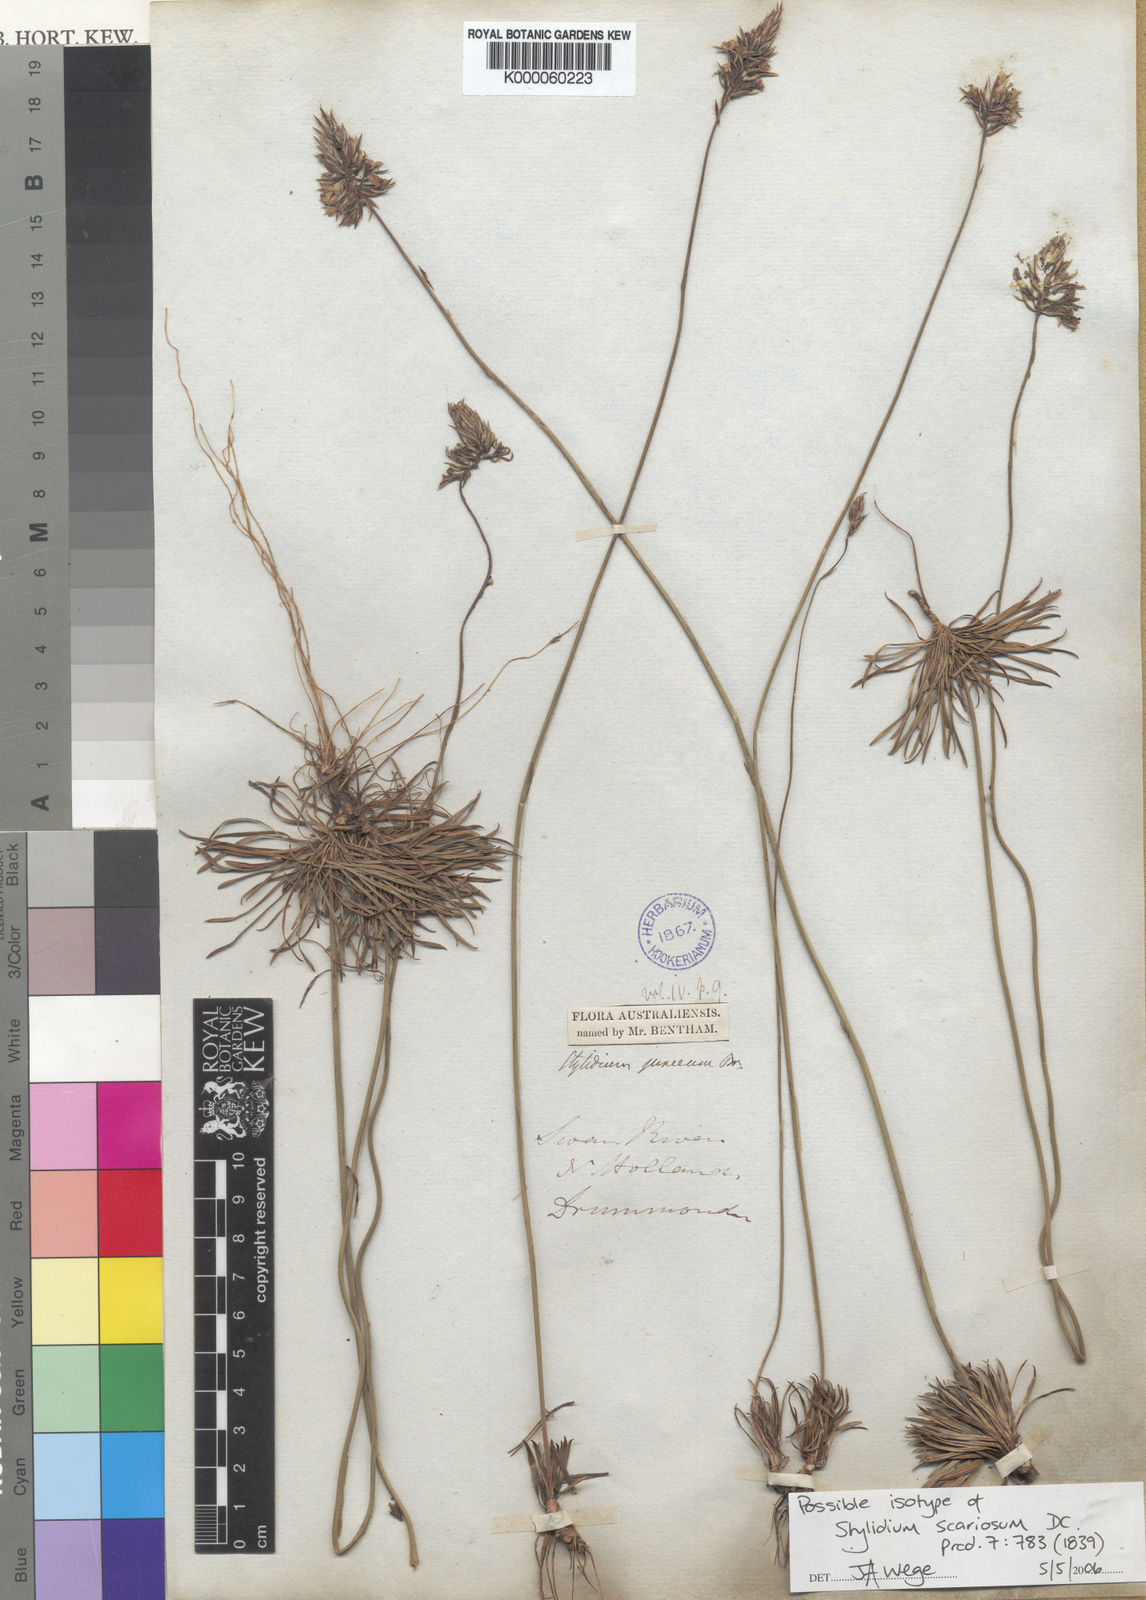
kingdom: Plantae
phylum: Tracheophyta
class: Magnoliopsida
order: Asterales
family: Stylidiaceae
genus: Stylidium
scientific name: Stylidium scariosum
